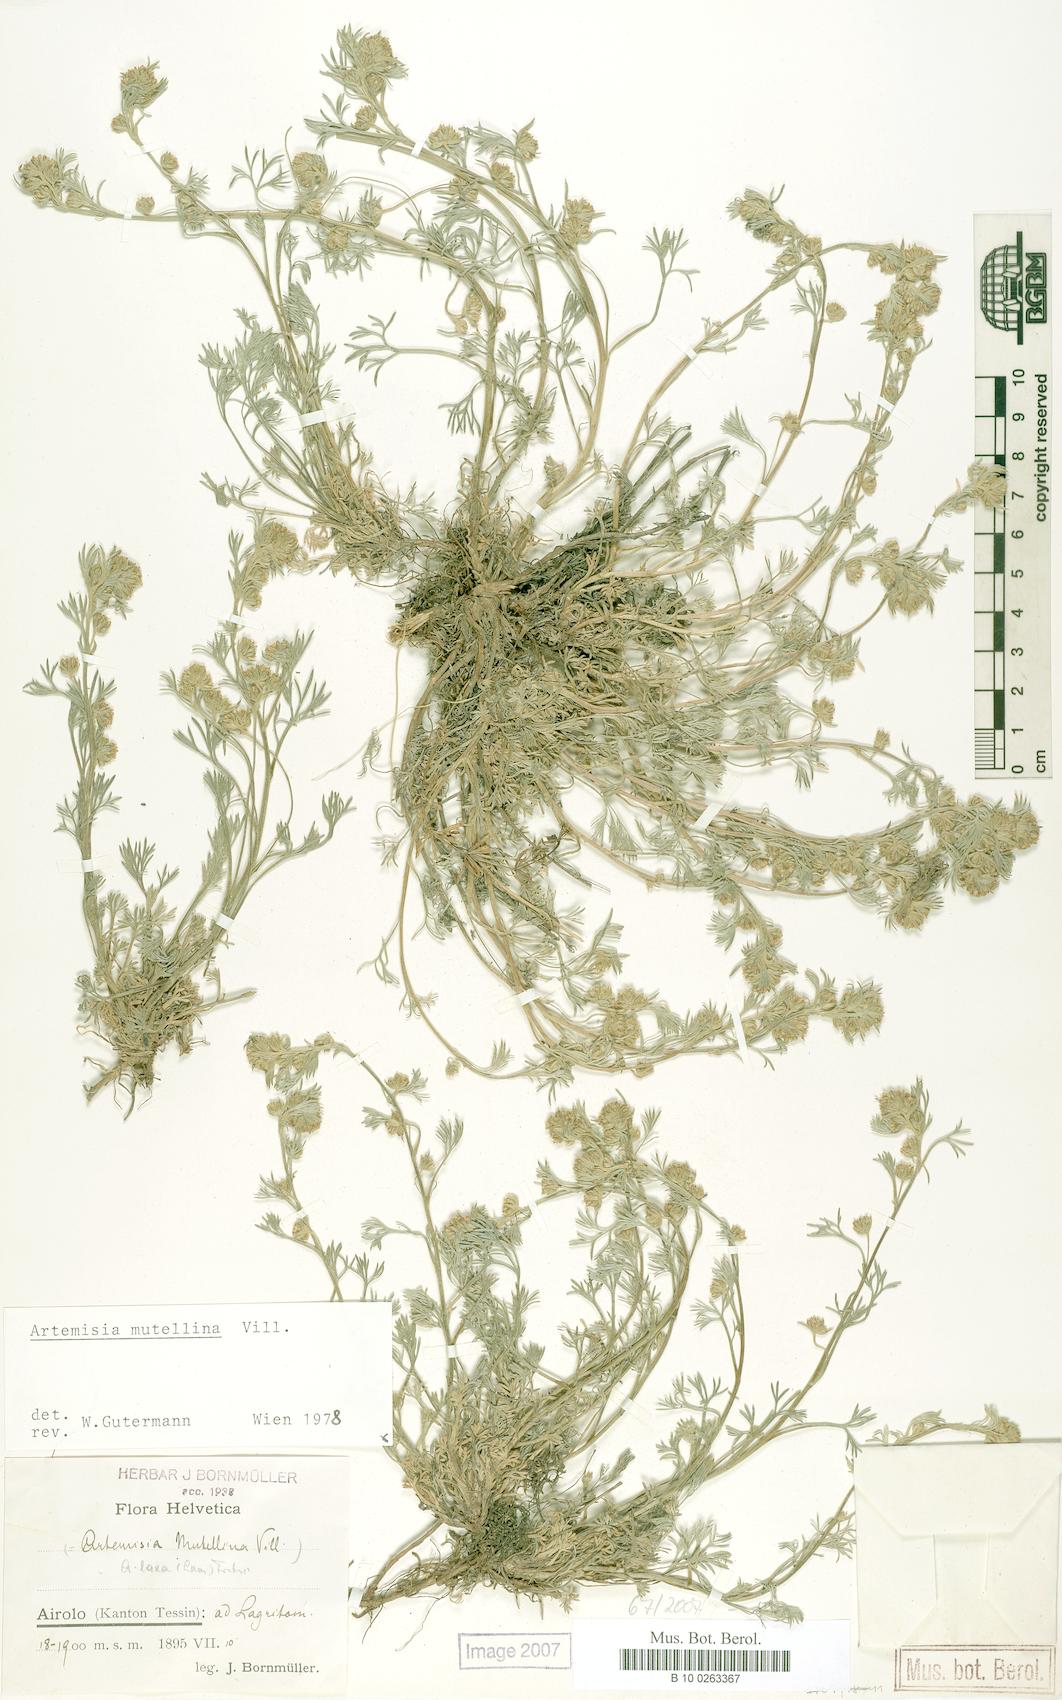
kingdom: Plantae
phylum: Tracheophyta
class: Magnoliopsida
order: Asterales
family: Asteraceae
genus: Artemisia
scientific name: Artemisia mutellina
